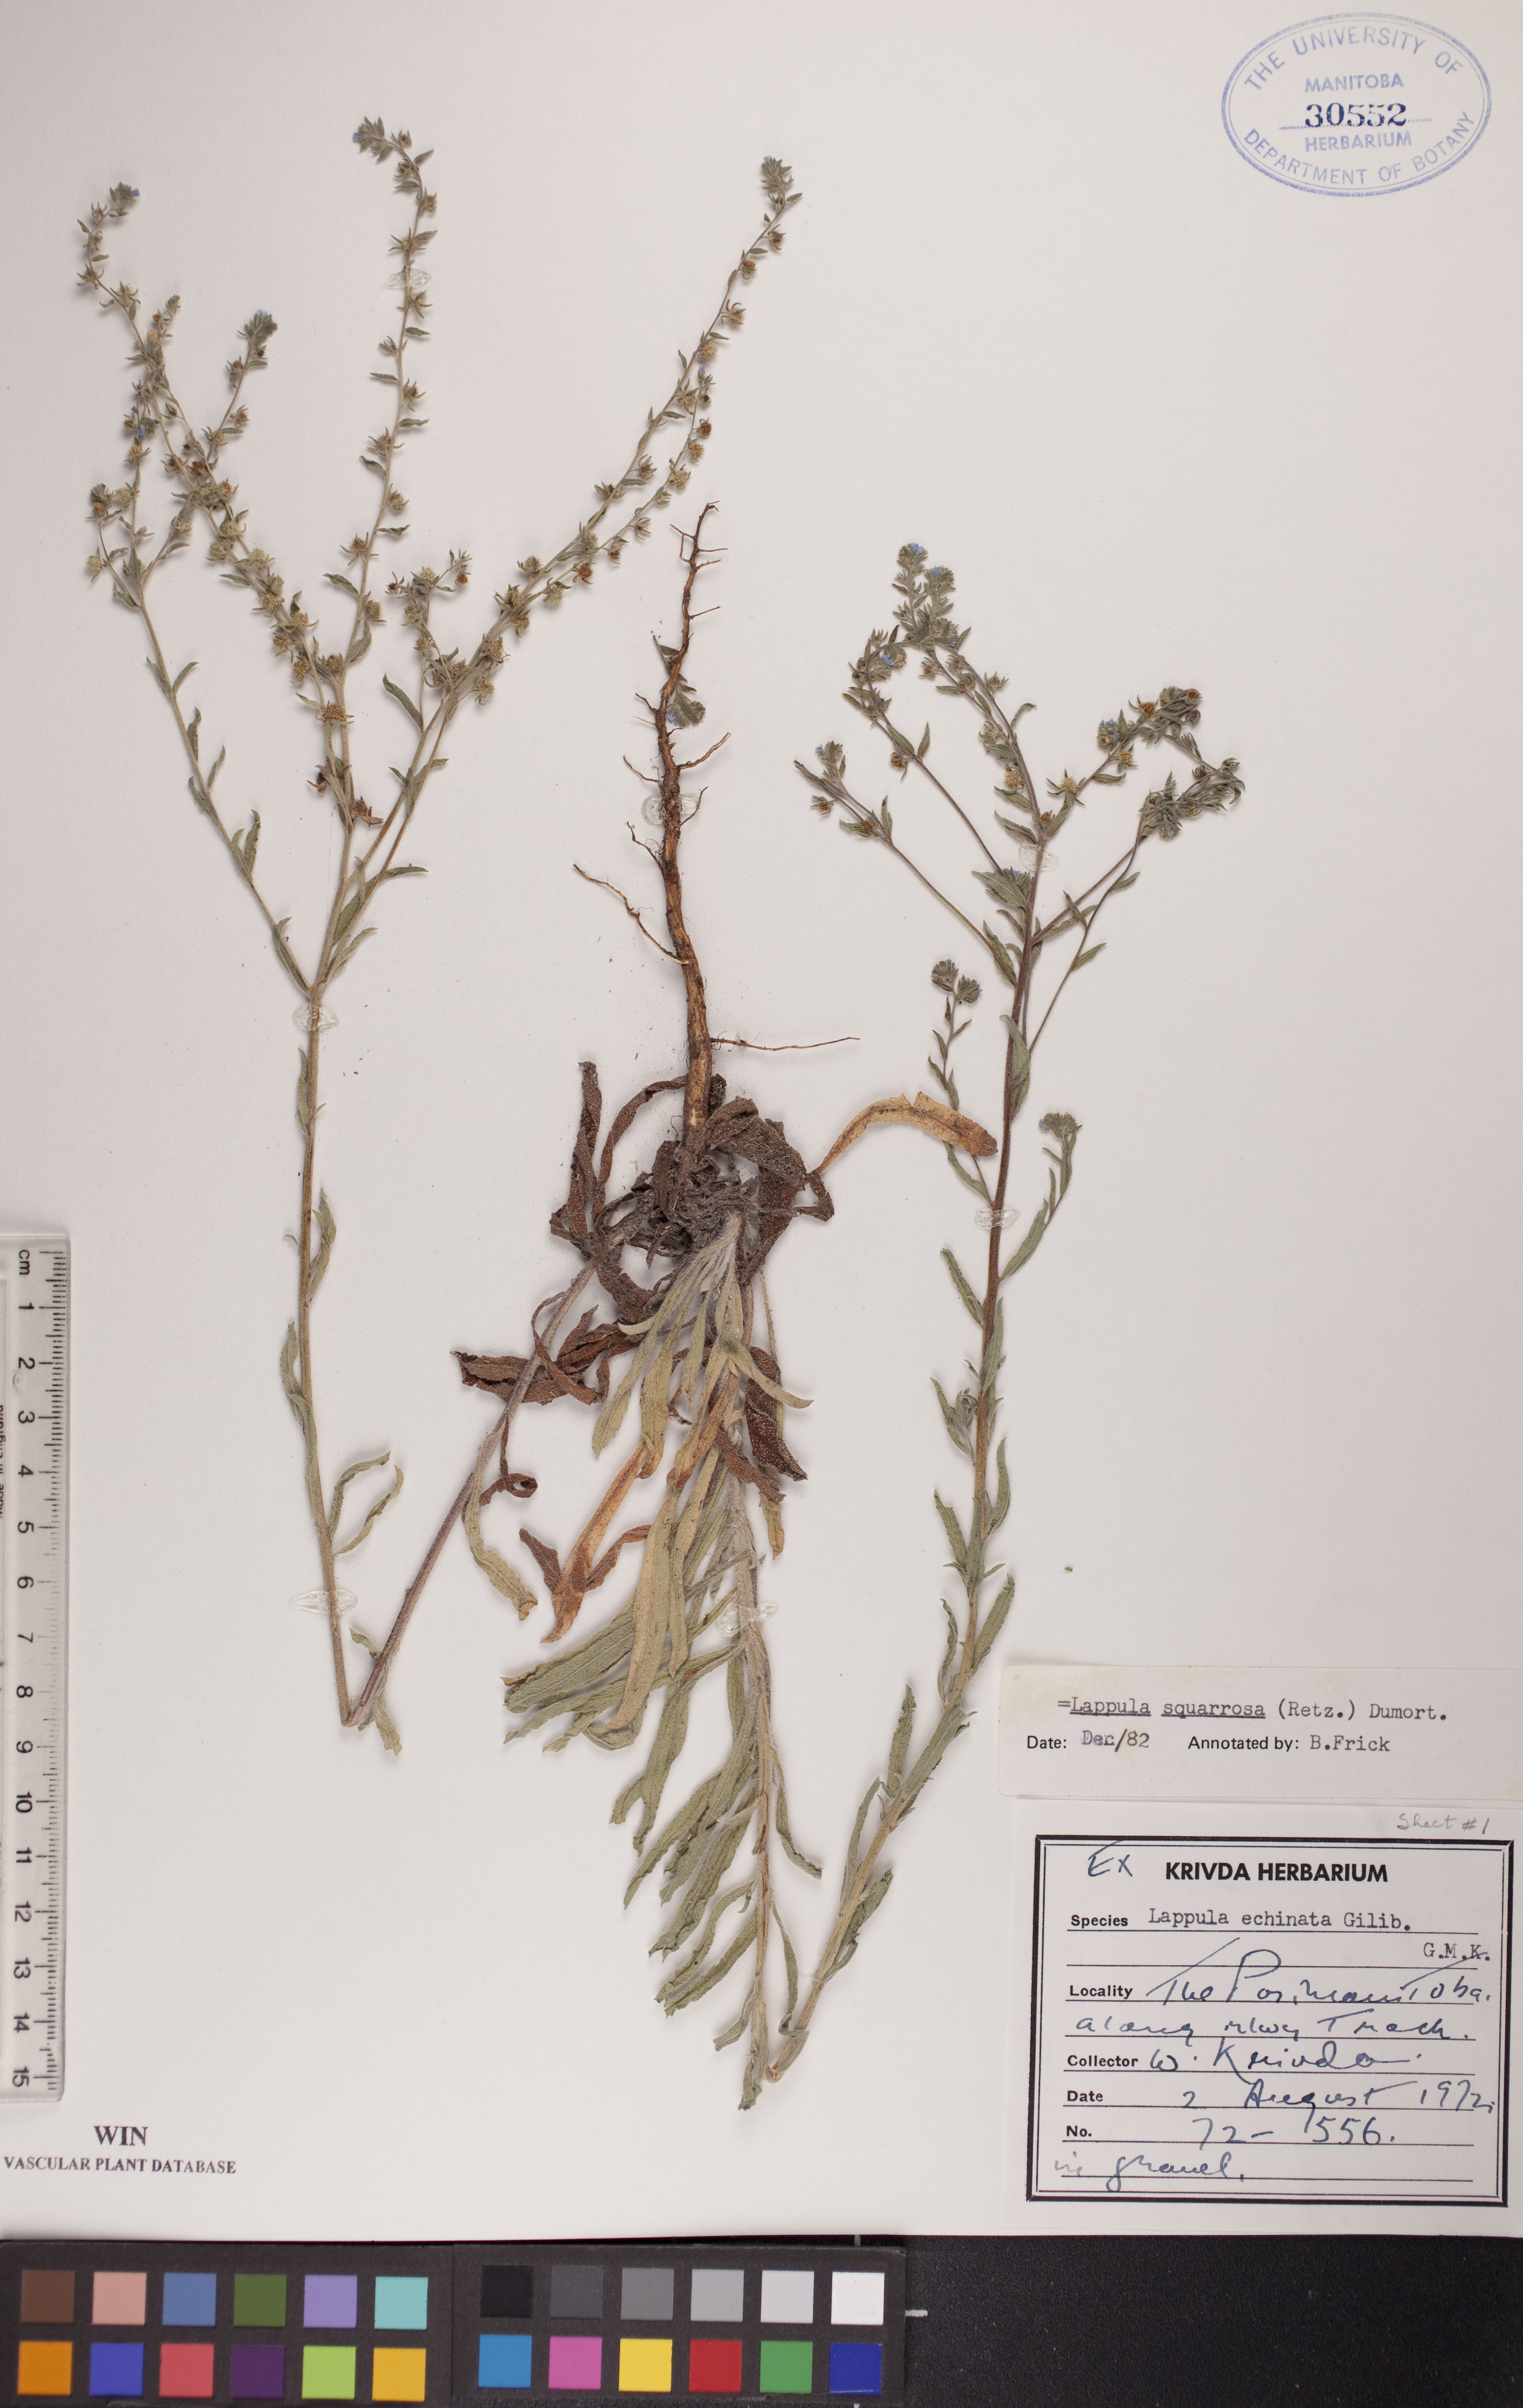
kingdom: Plantae
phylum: Tracheophyta
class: Magnoliopsida
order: Boraginales
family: Boraginaceae
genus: Lappula
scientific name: Lappula squarrosa
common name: European stickseed
